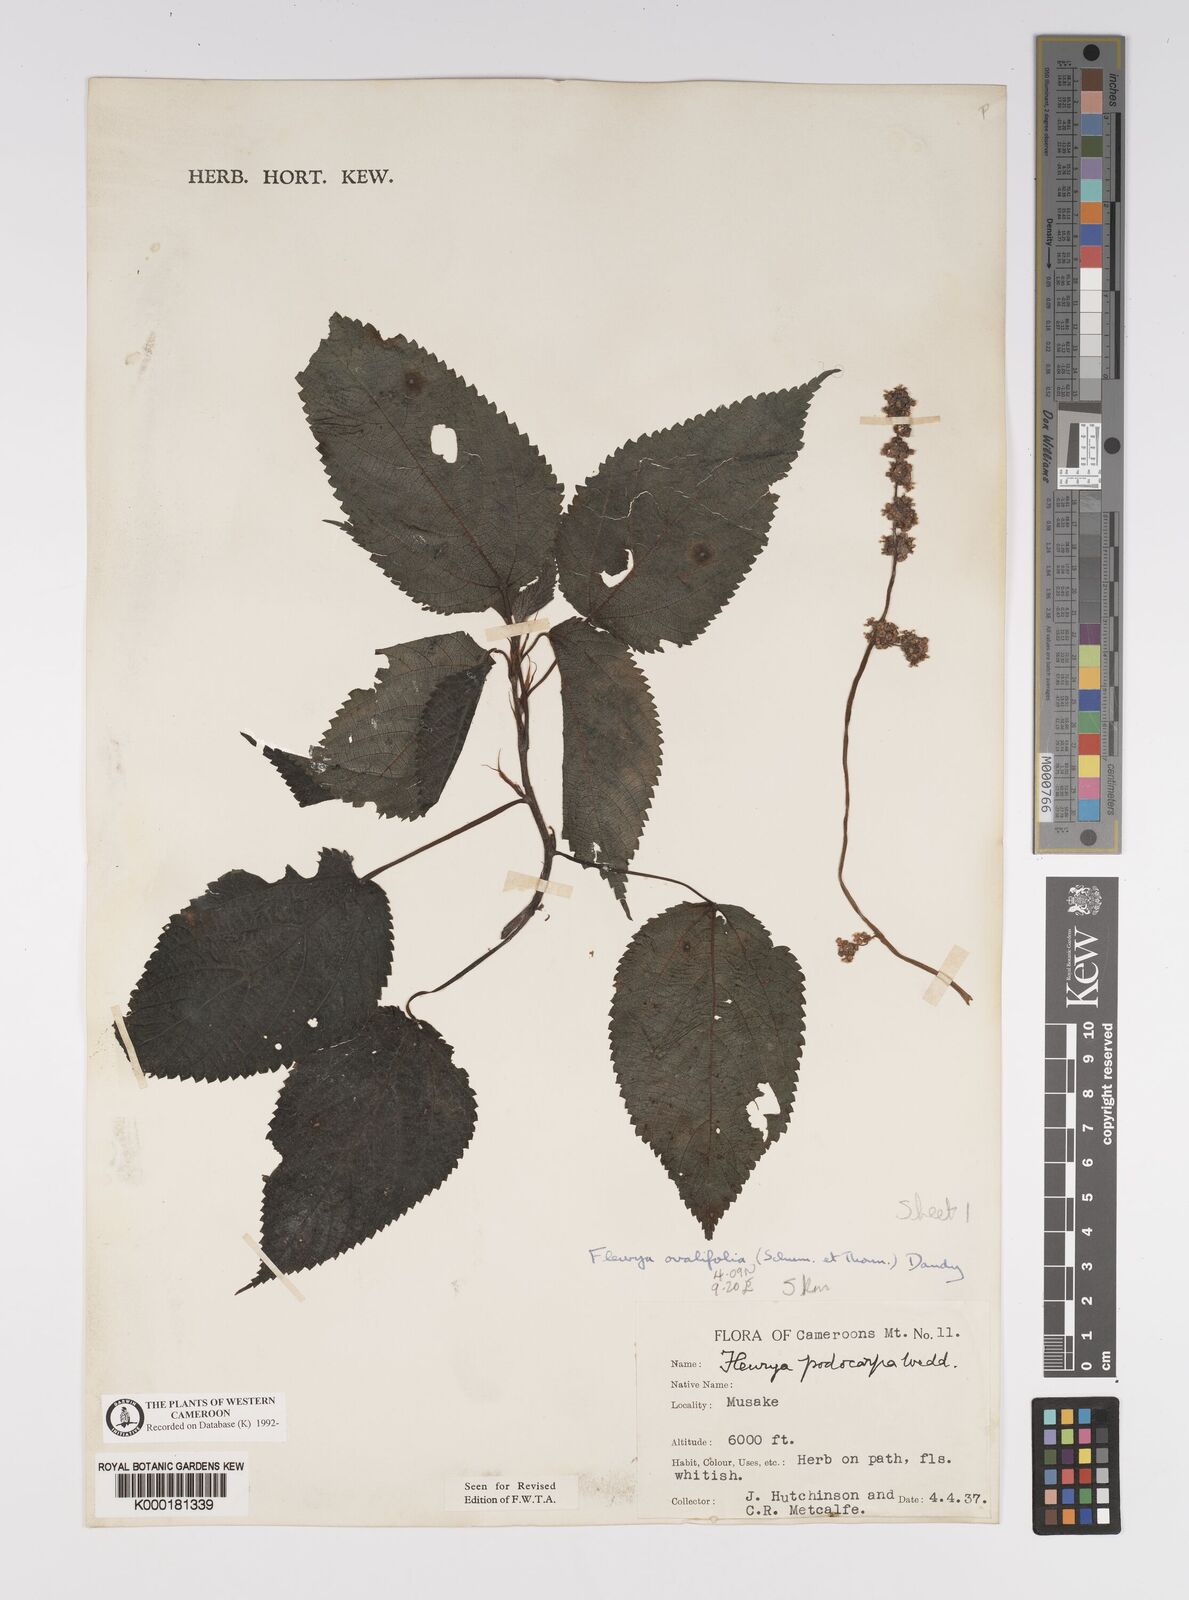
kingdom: Plantae
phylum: Tracheophyta
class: Magnoliopsida
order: Rosales
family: Urticaceae
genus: Laportea
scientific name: Laportea ovalifolia
